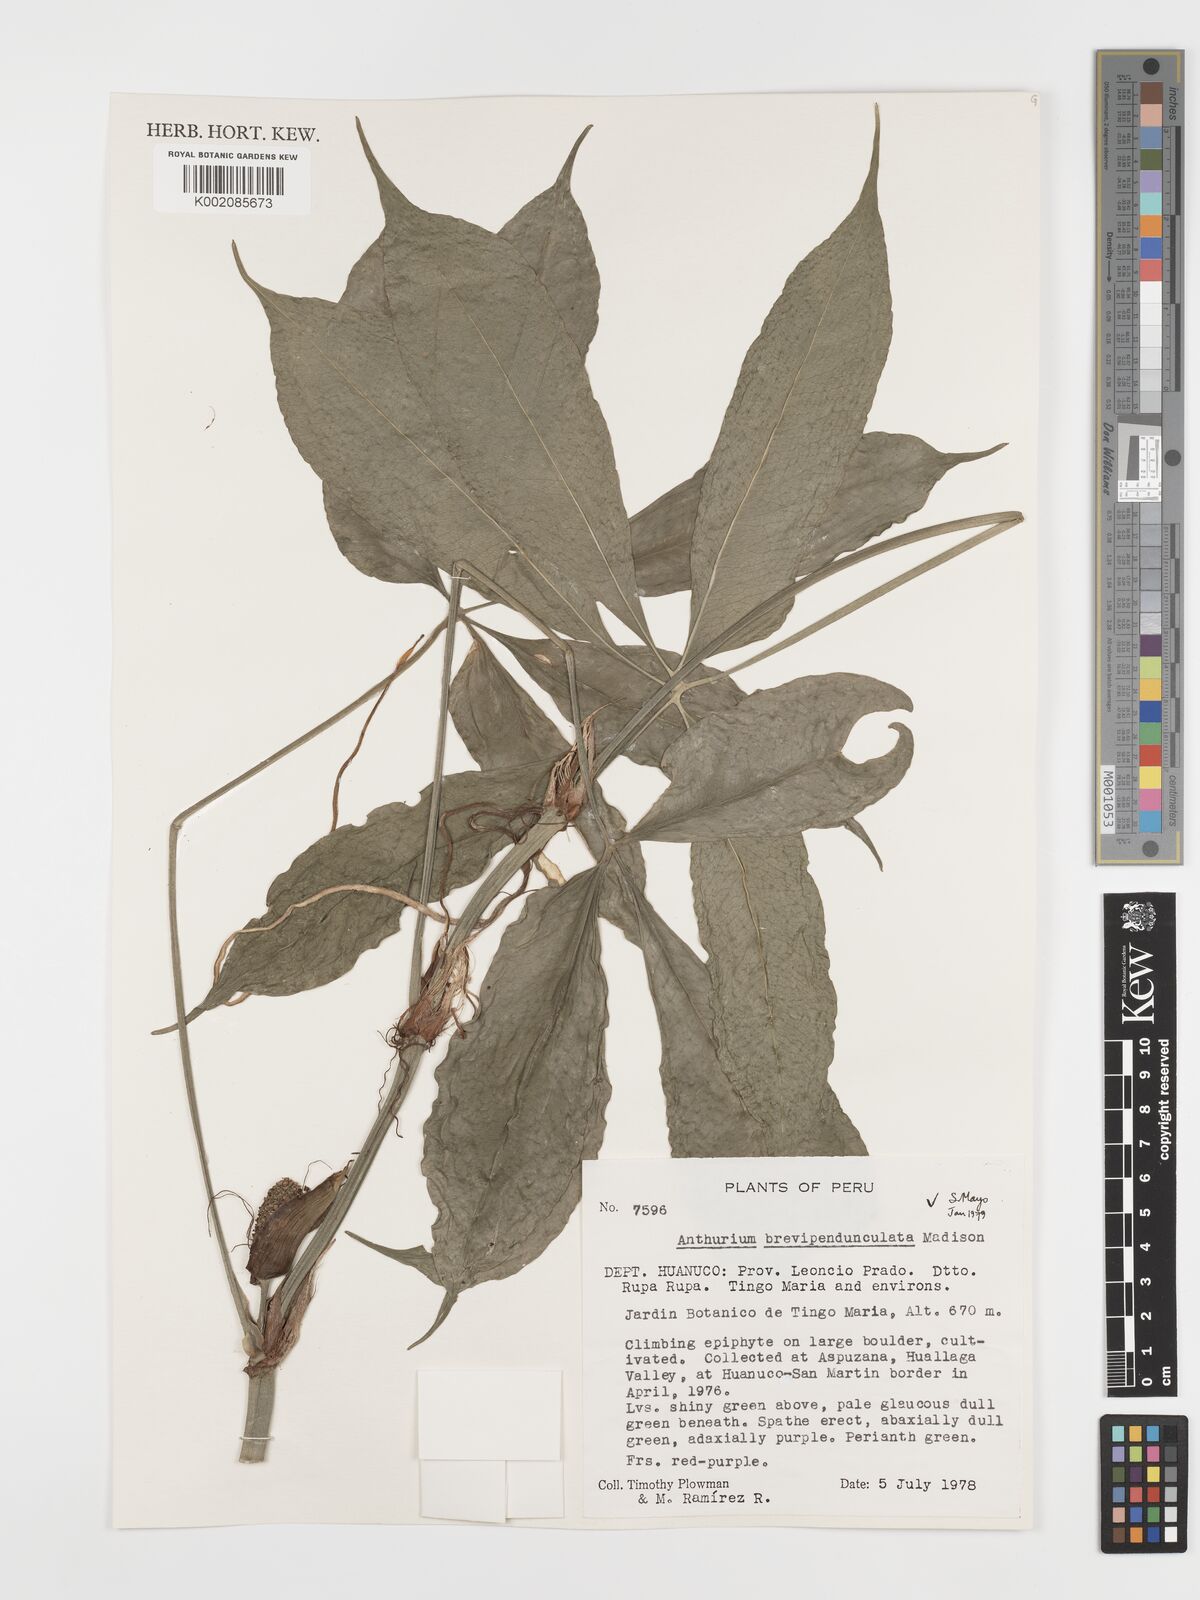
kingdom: Plantae
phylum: Tracheophyta
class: Liliopsida
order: Alismatales
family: Araceae
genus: Anthurium
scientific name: Anthurium brevipedunculatum
